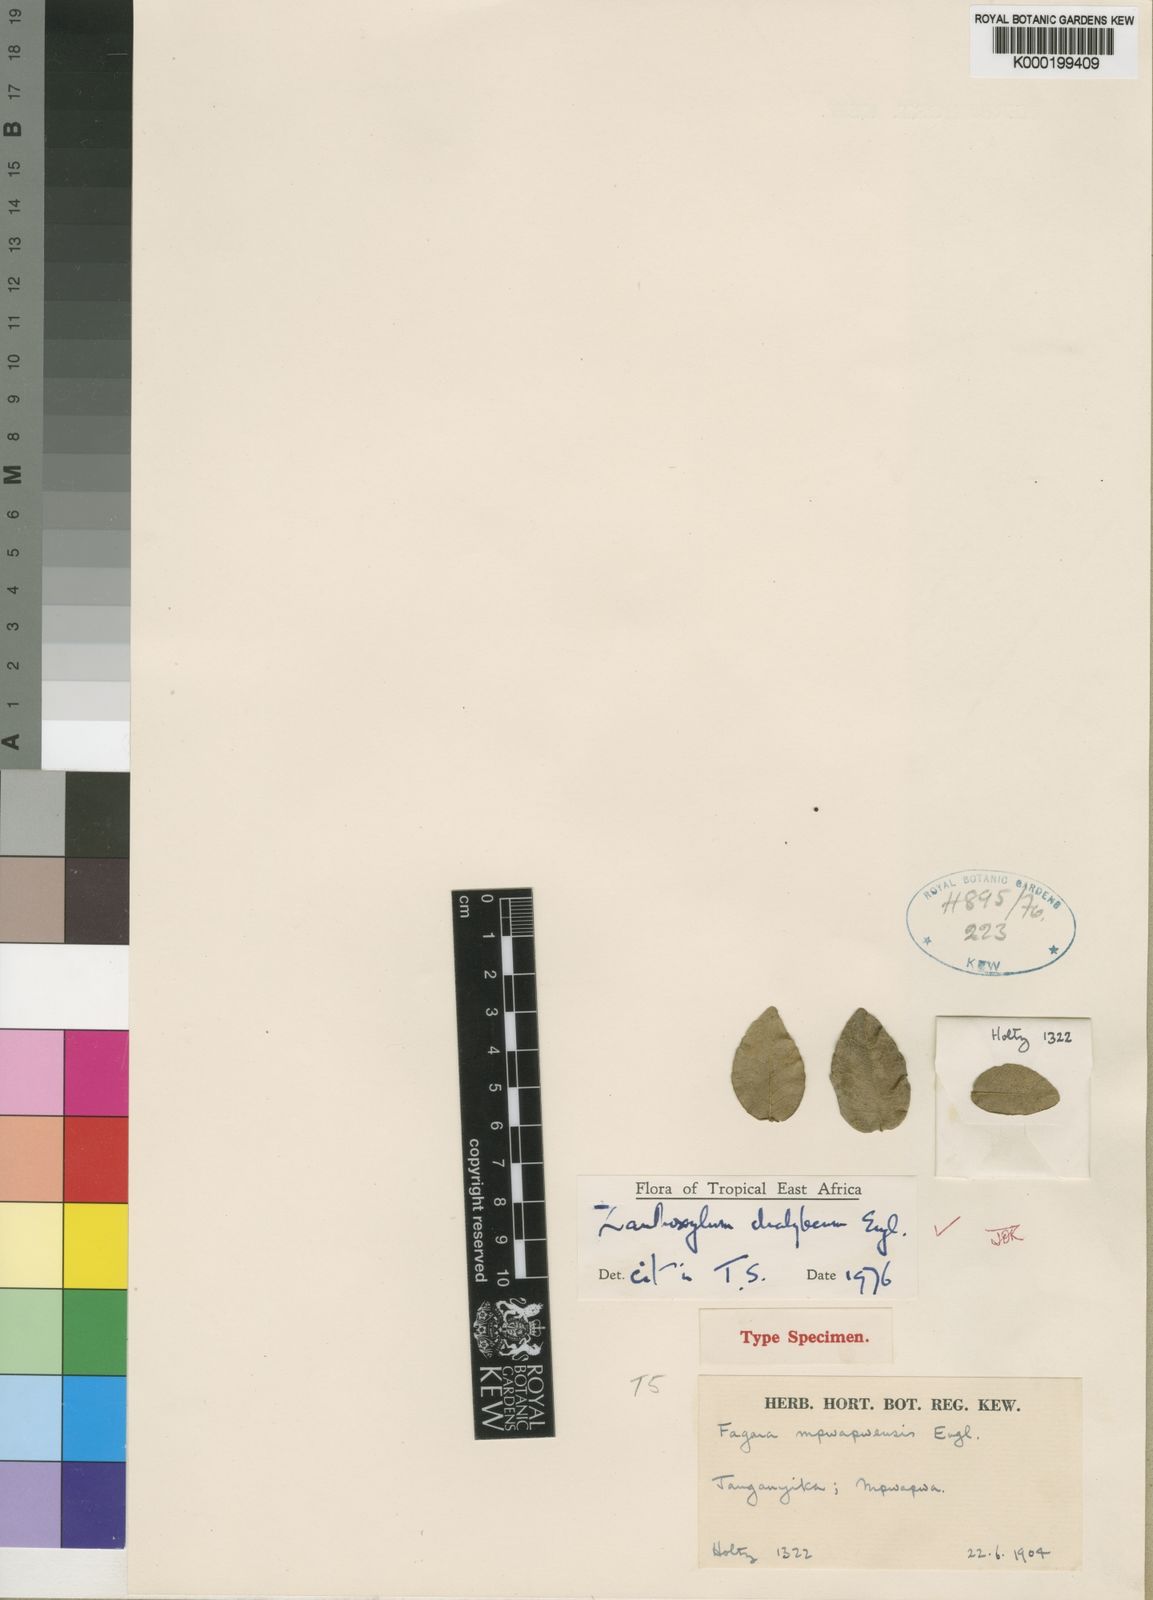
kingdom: Plantae
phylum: Tracheophyta
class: Magnoliopsida
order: Sapindales
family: Rutaceae
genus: Zanthoxylum
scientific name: Zanthoxylum chalybaeum
